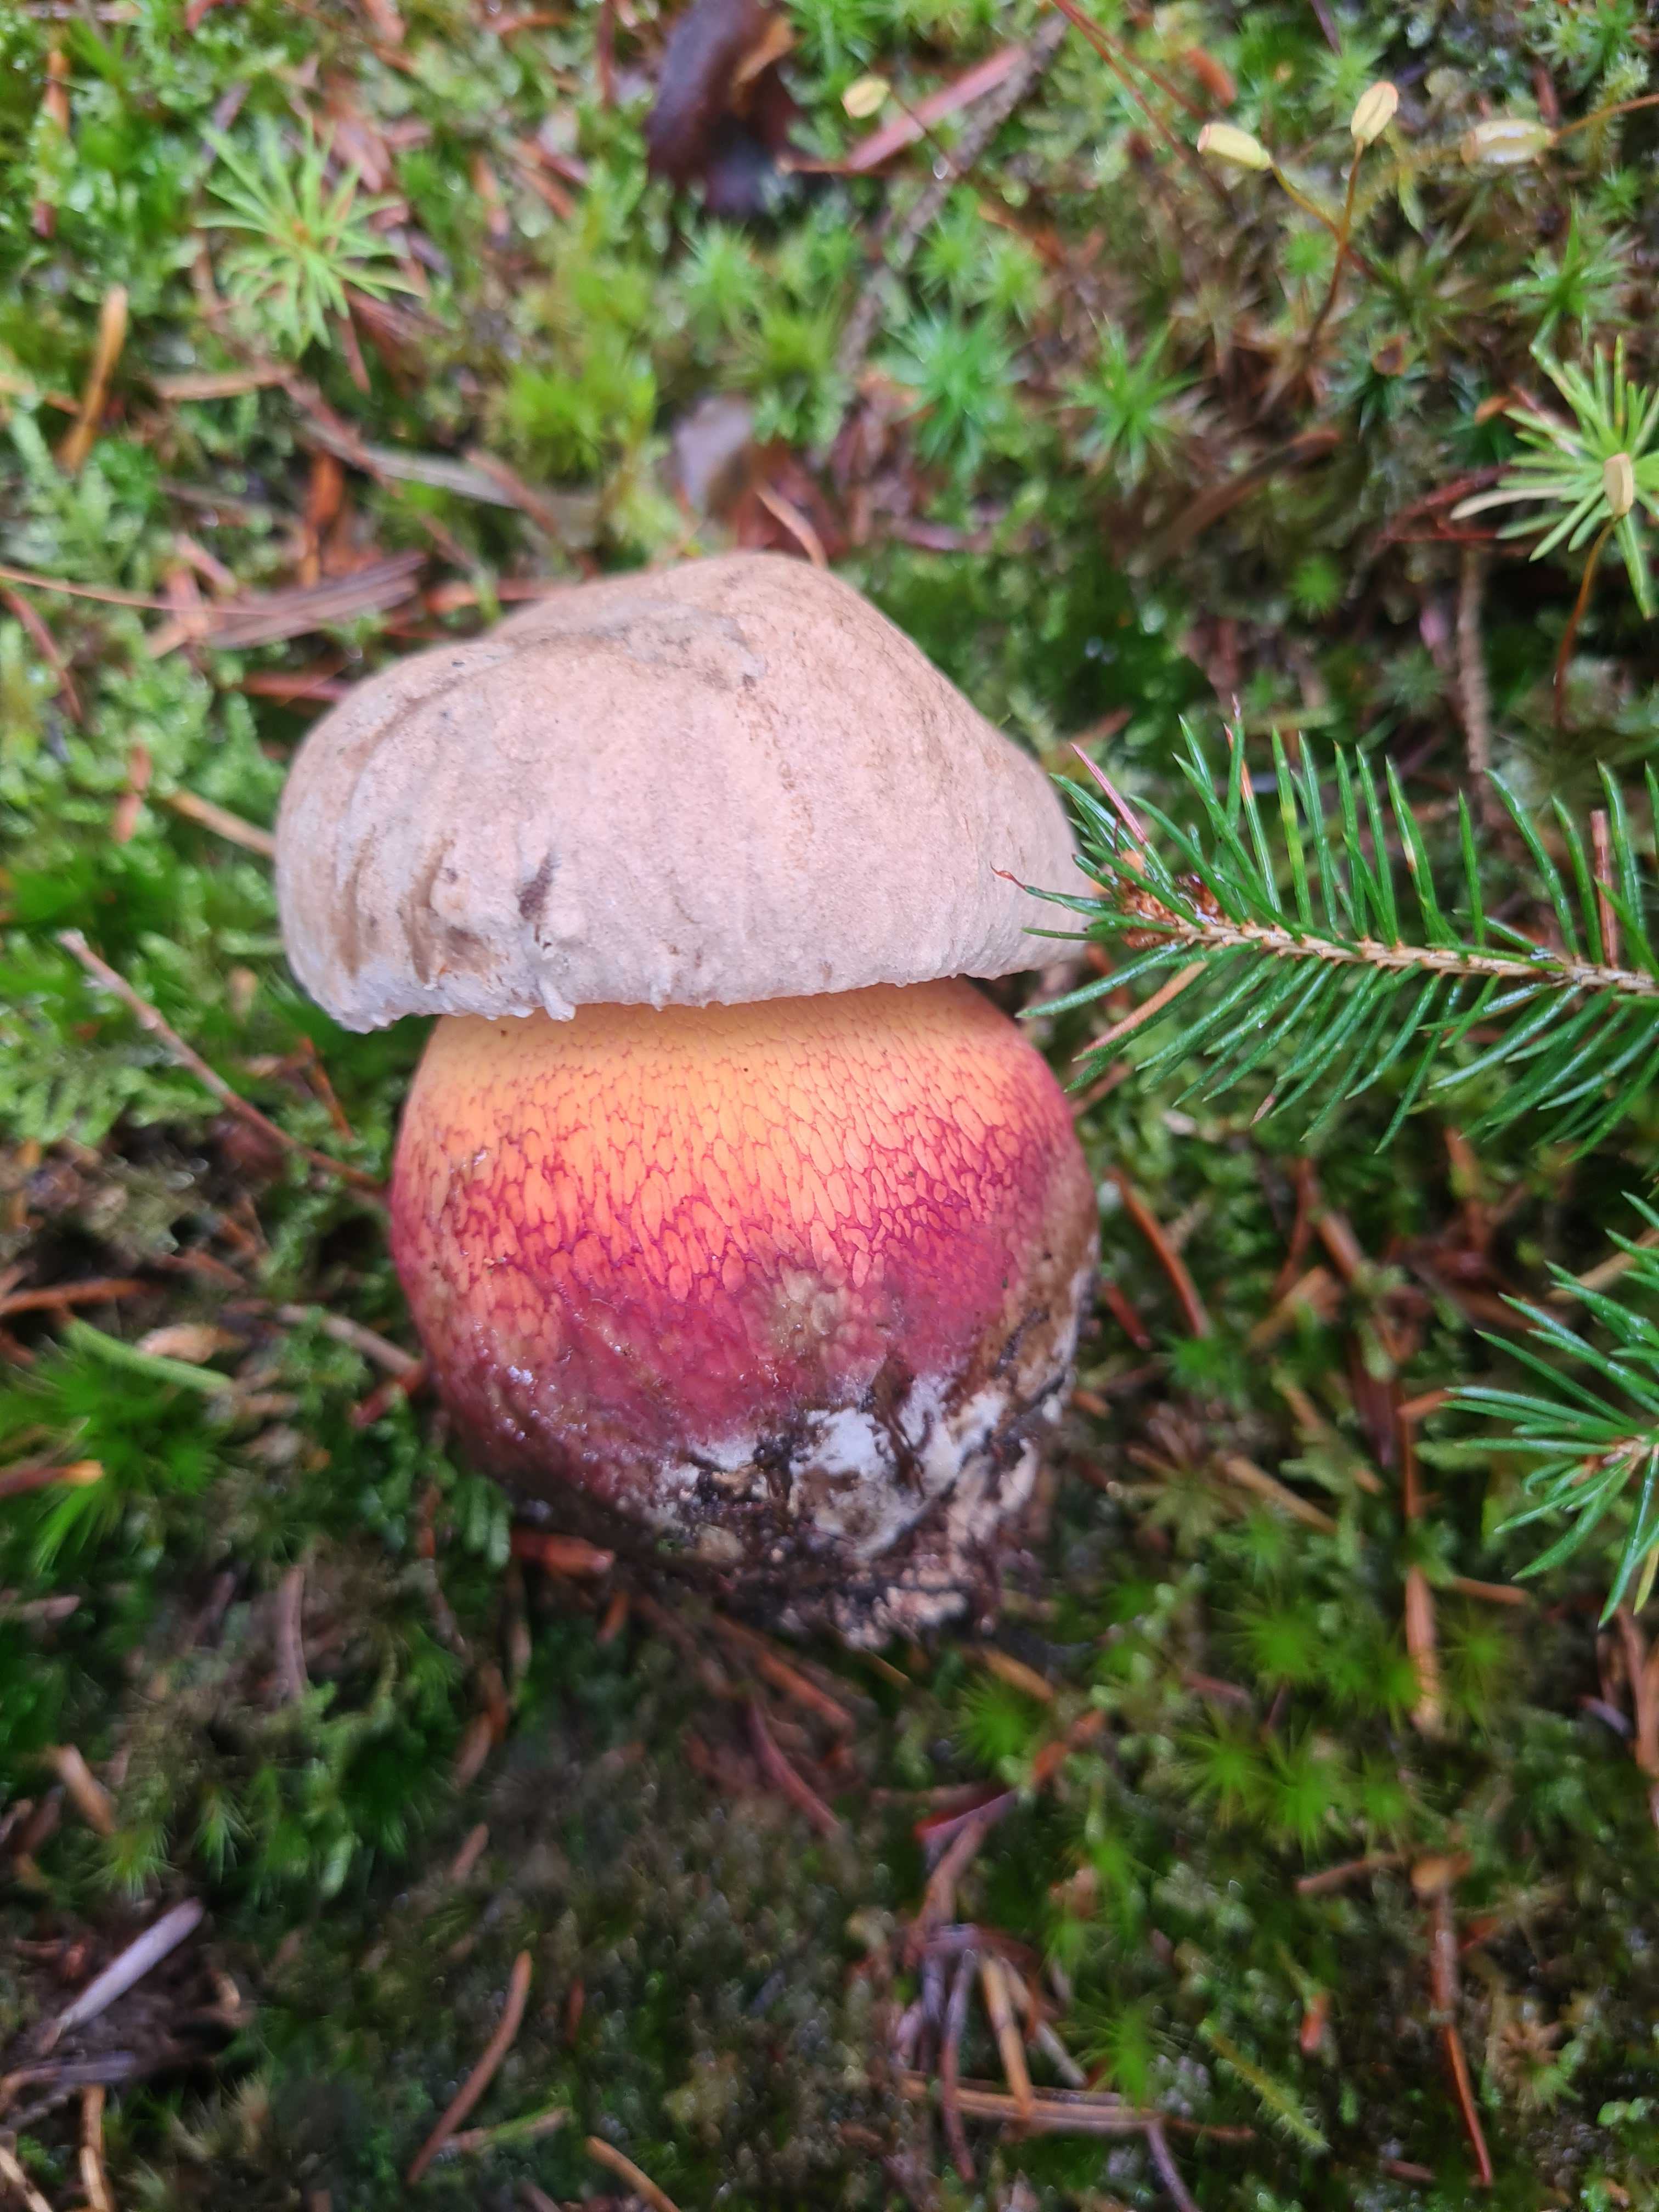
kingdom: Fungi
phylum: Basidiomycota
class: Agaricomycetes
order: Boletales
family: Boletaceae
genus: Caloboletus
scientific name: Caloboletus calopus
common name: skønfodet rørhat
